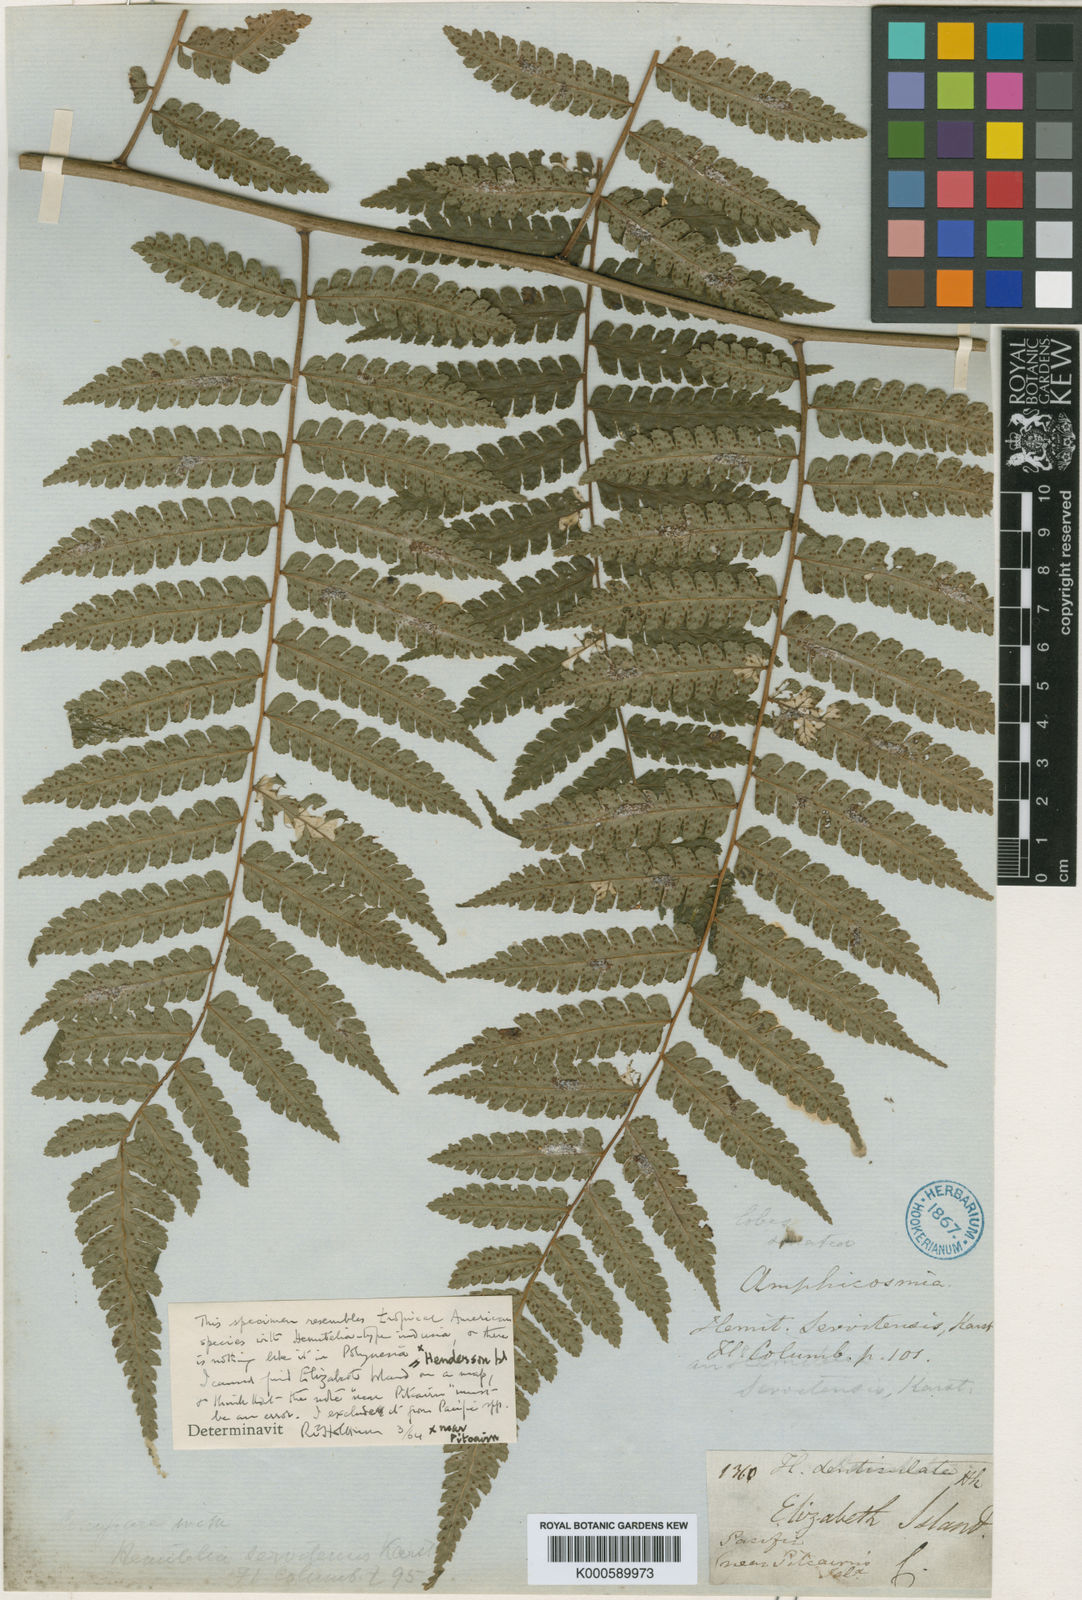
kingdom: Plantae
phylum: Tracheophyta
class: Polypodiopsida
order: Cyatheales
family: Cyatheaceae
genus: Cyathea
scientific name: Cyathea multiflora
